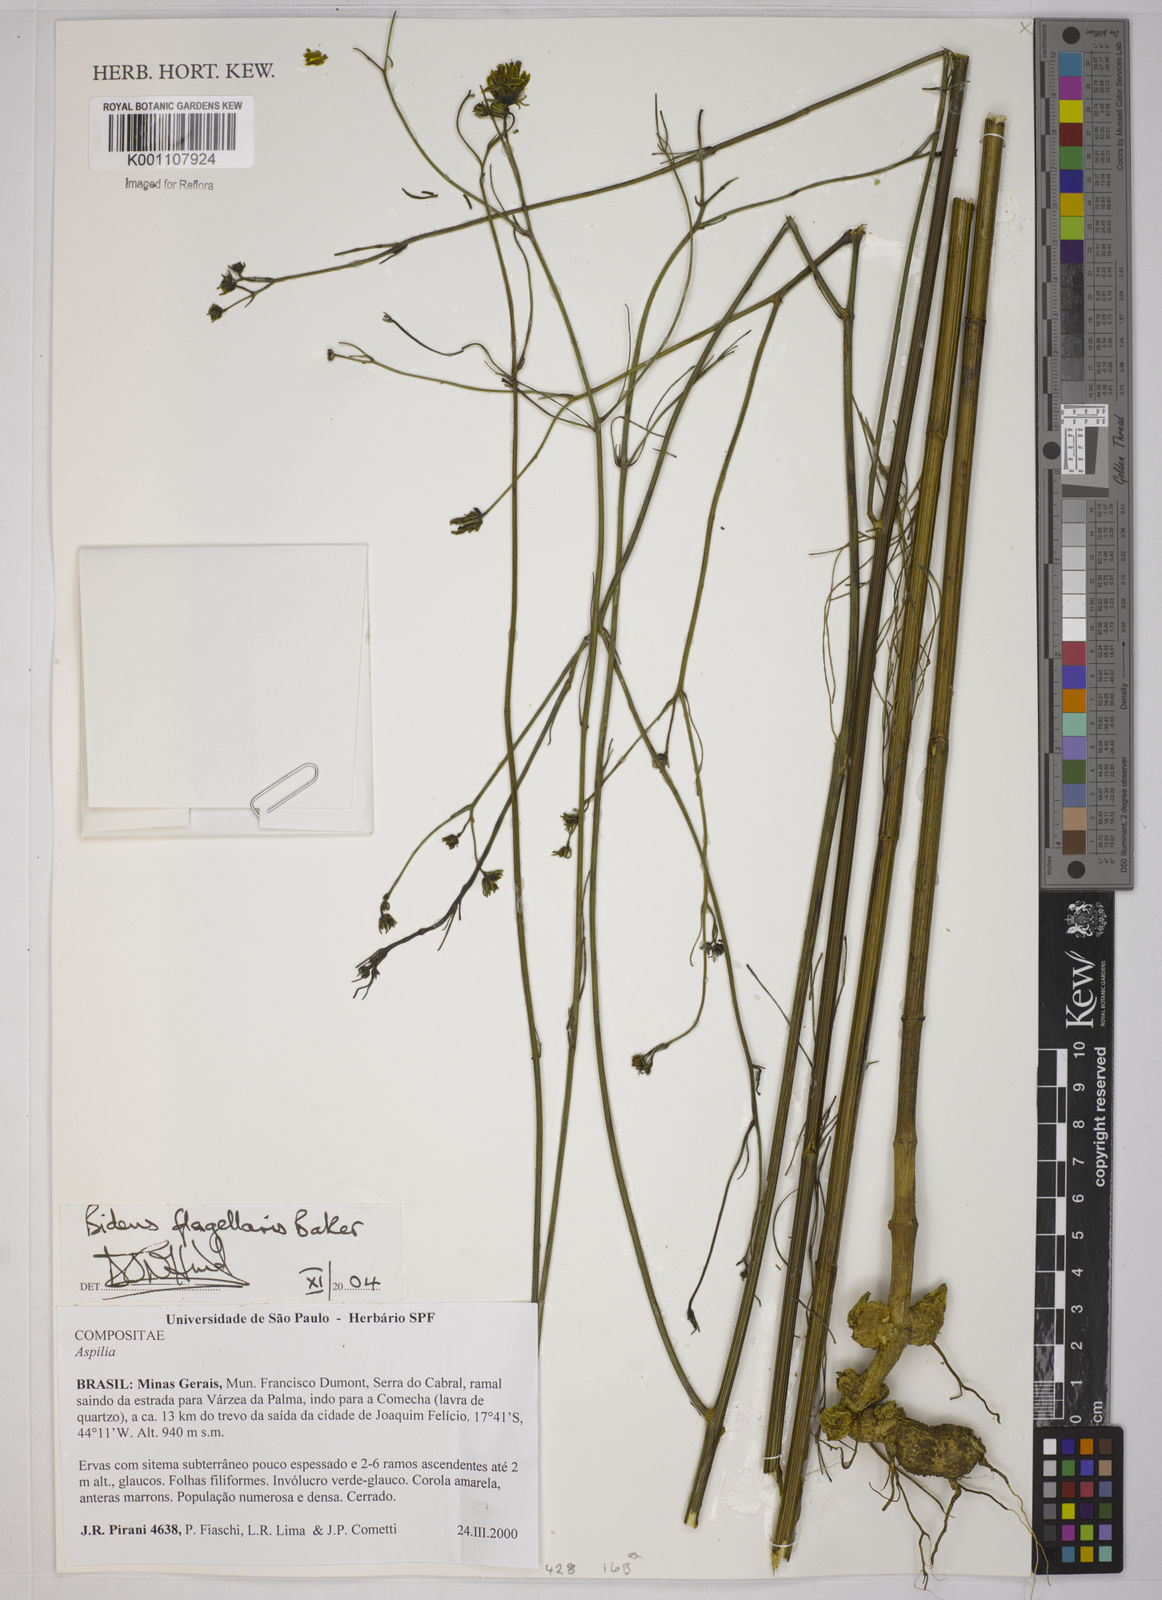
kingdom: Plantae
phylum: Tracheophyta
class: Magnoliopsida
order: Asterales
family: Asteraceae
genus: Bidens
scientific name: Bidens flagellaris
